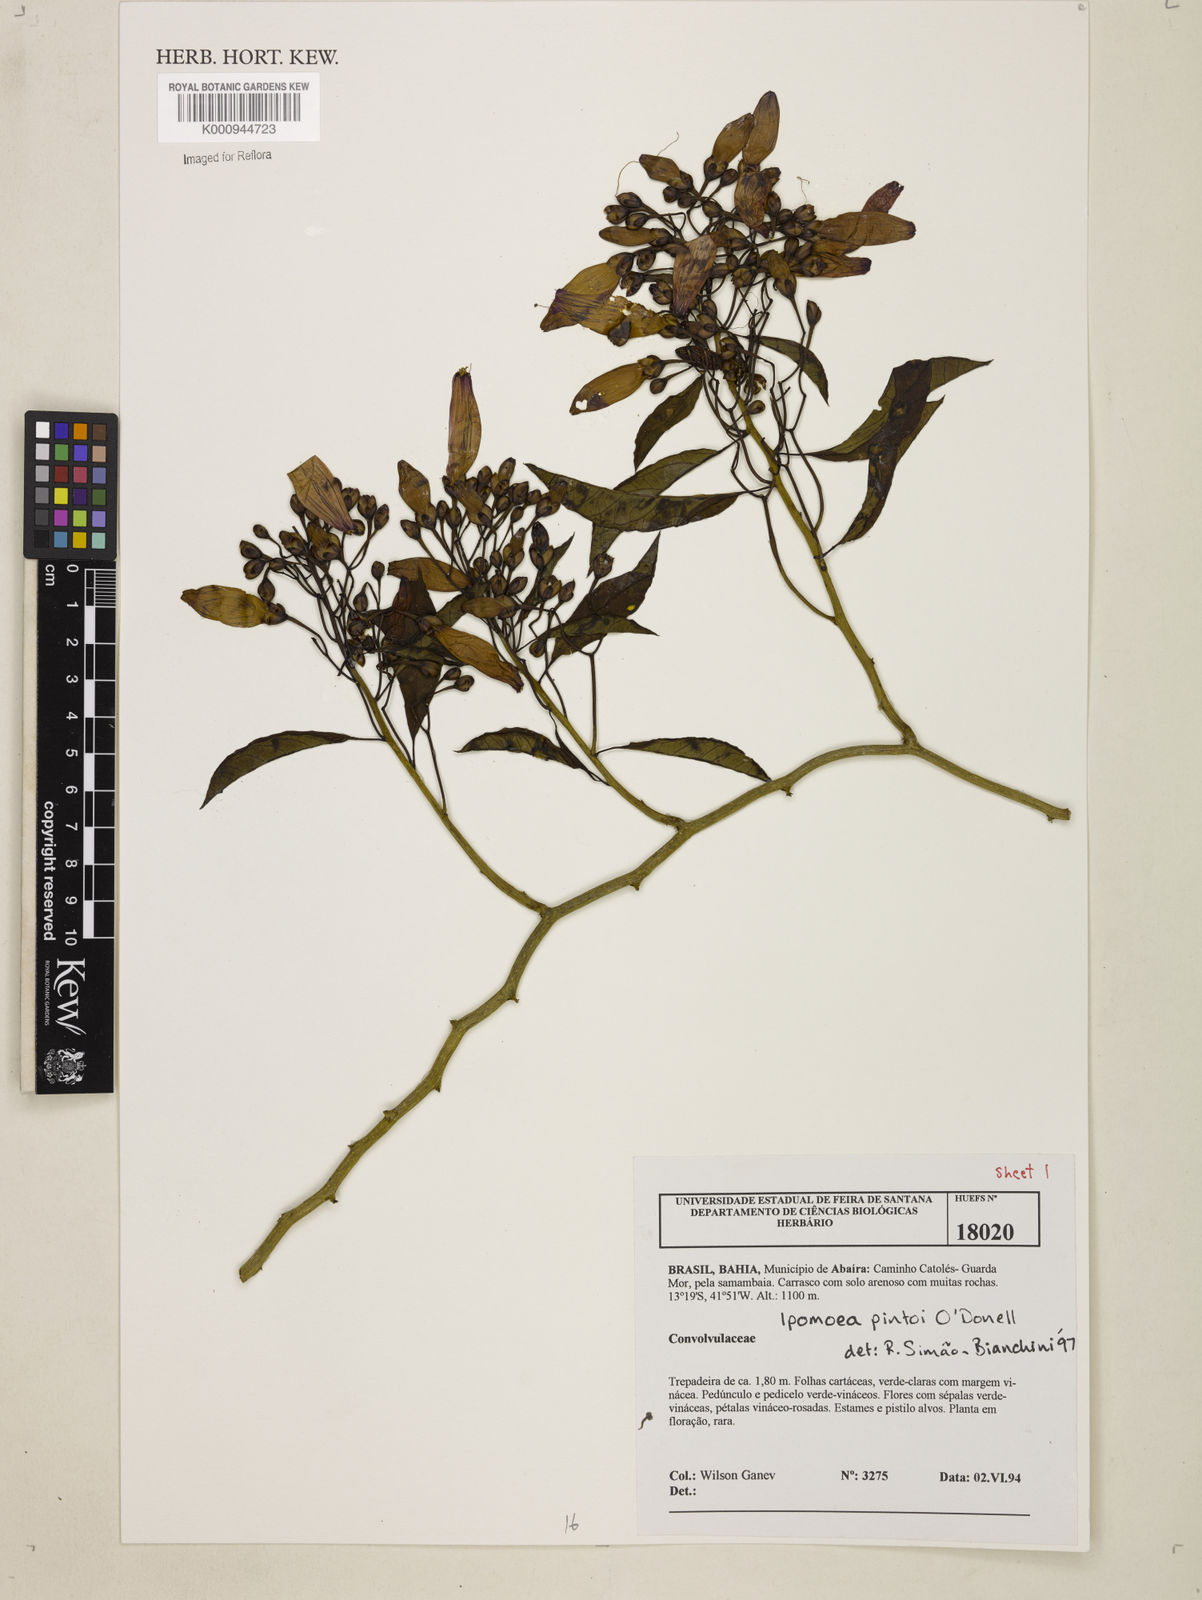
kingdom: Plantae
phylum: Tracheophyta
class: Magnoliopsida
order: Solanales
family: Convolvulaceae
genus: Ipomoea
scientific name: Ipomoea ana-mariae
